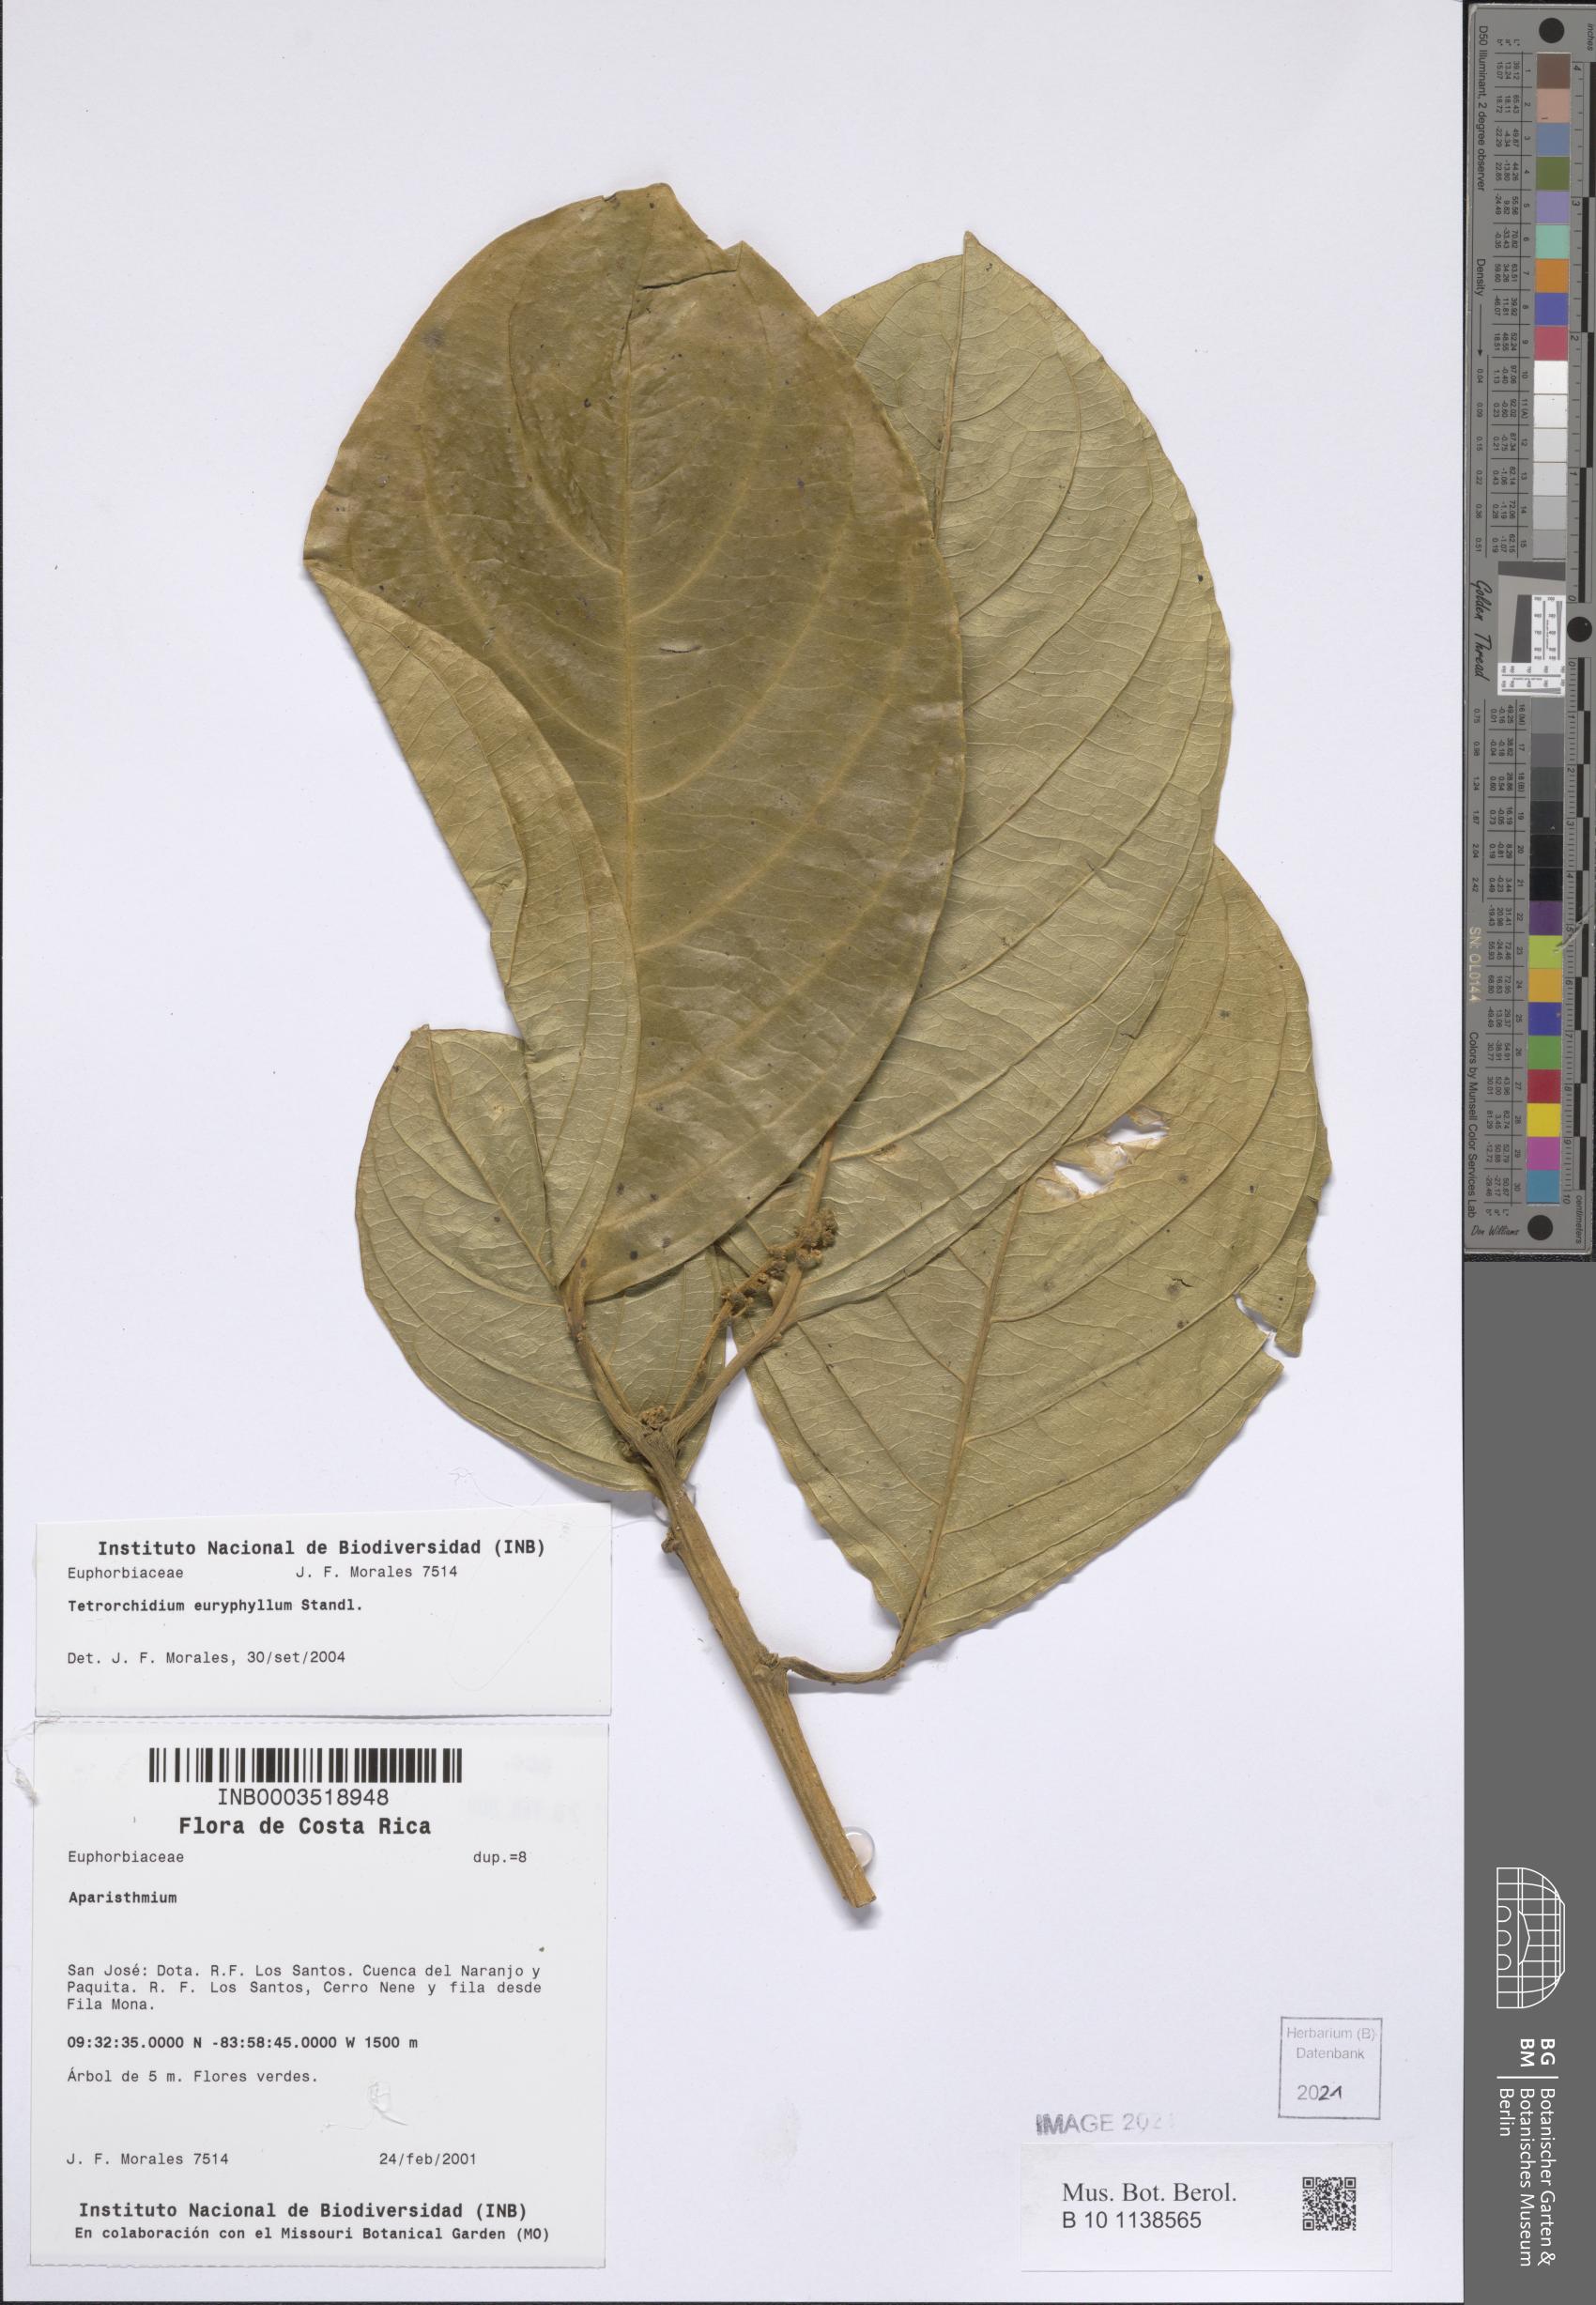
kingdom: Plantae
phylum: Tracheophyta
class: Magnoliopsida
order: Malpighiales
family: Euphorbiaceae
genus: Tetrorchidium
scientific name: Tetrorchidium euryphyllum
